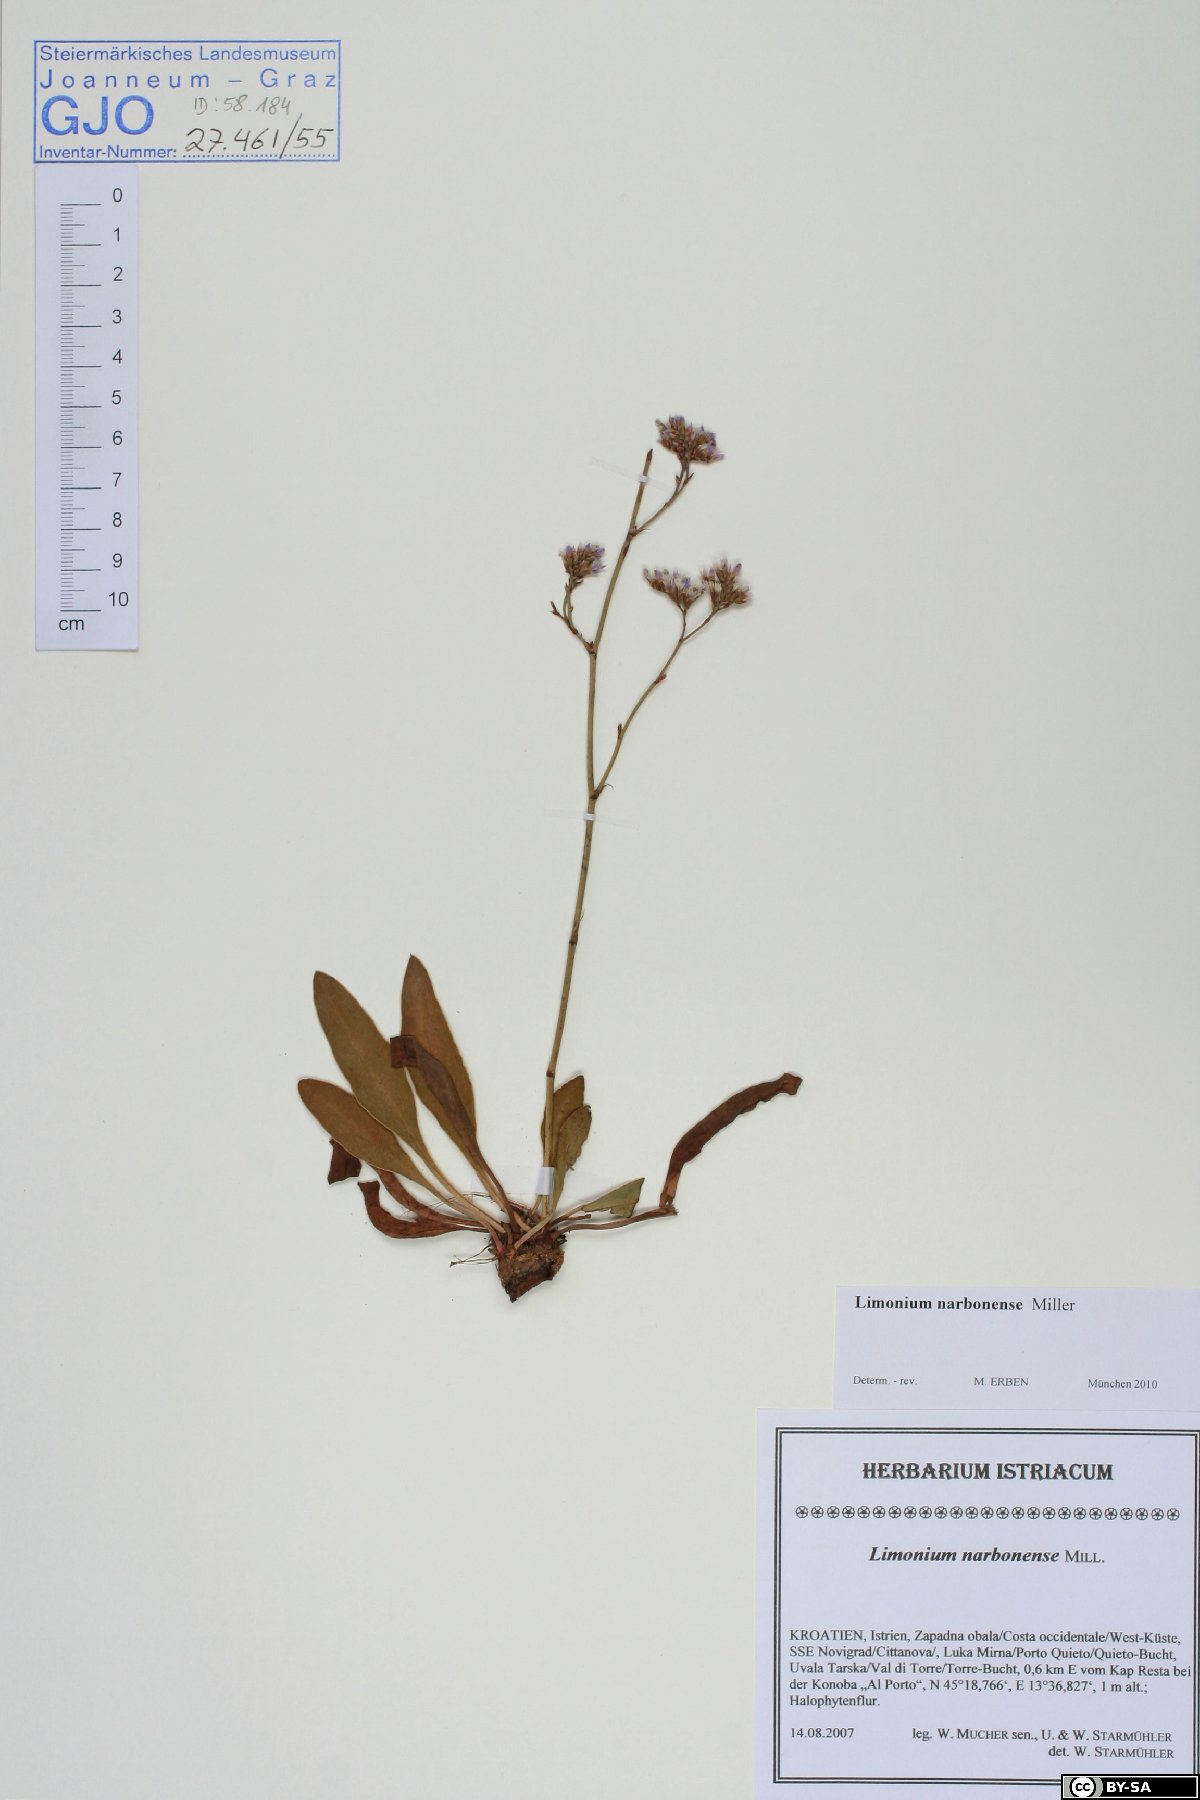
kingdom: Plantae
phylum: Tracheophyta
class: Magnoliopsida
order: Caryophyllales
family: Plumbaginaceae
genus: Limonium
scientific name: Limonium narbonense
